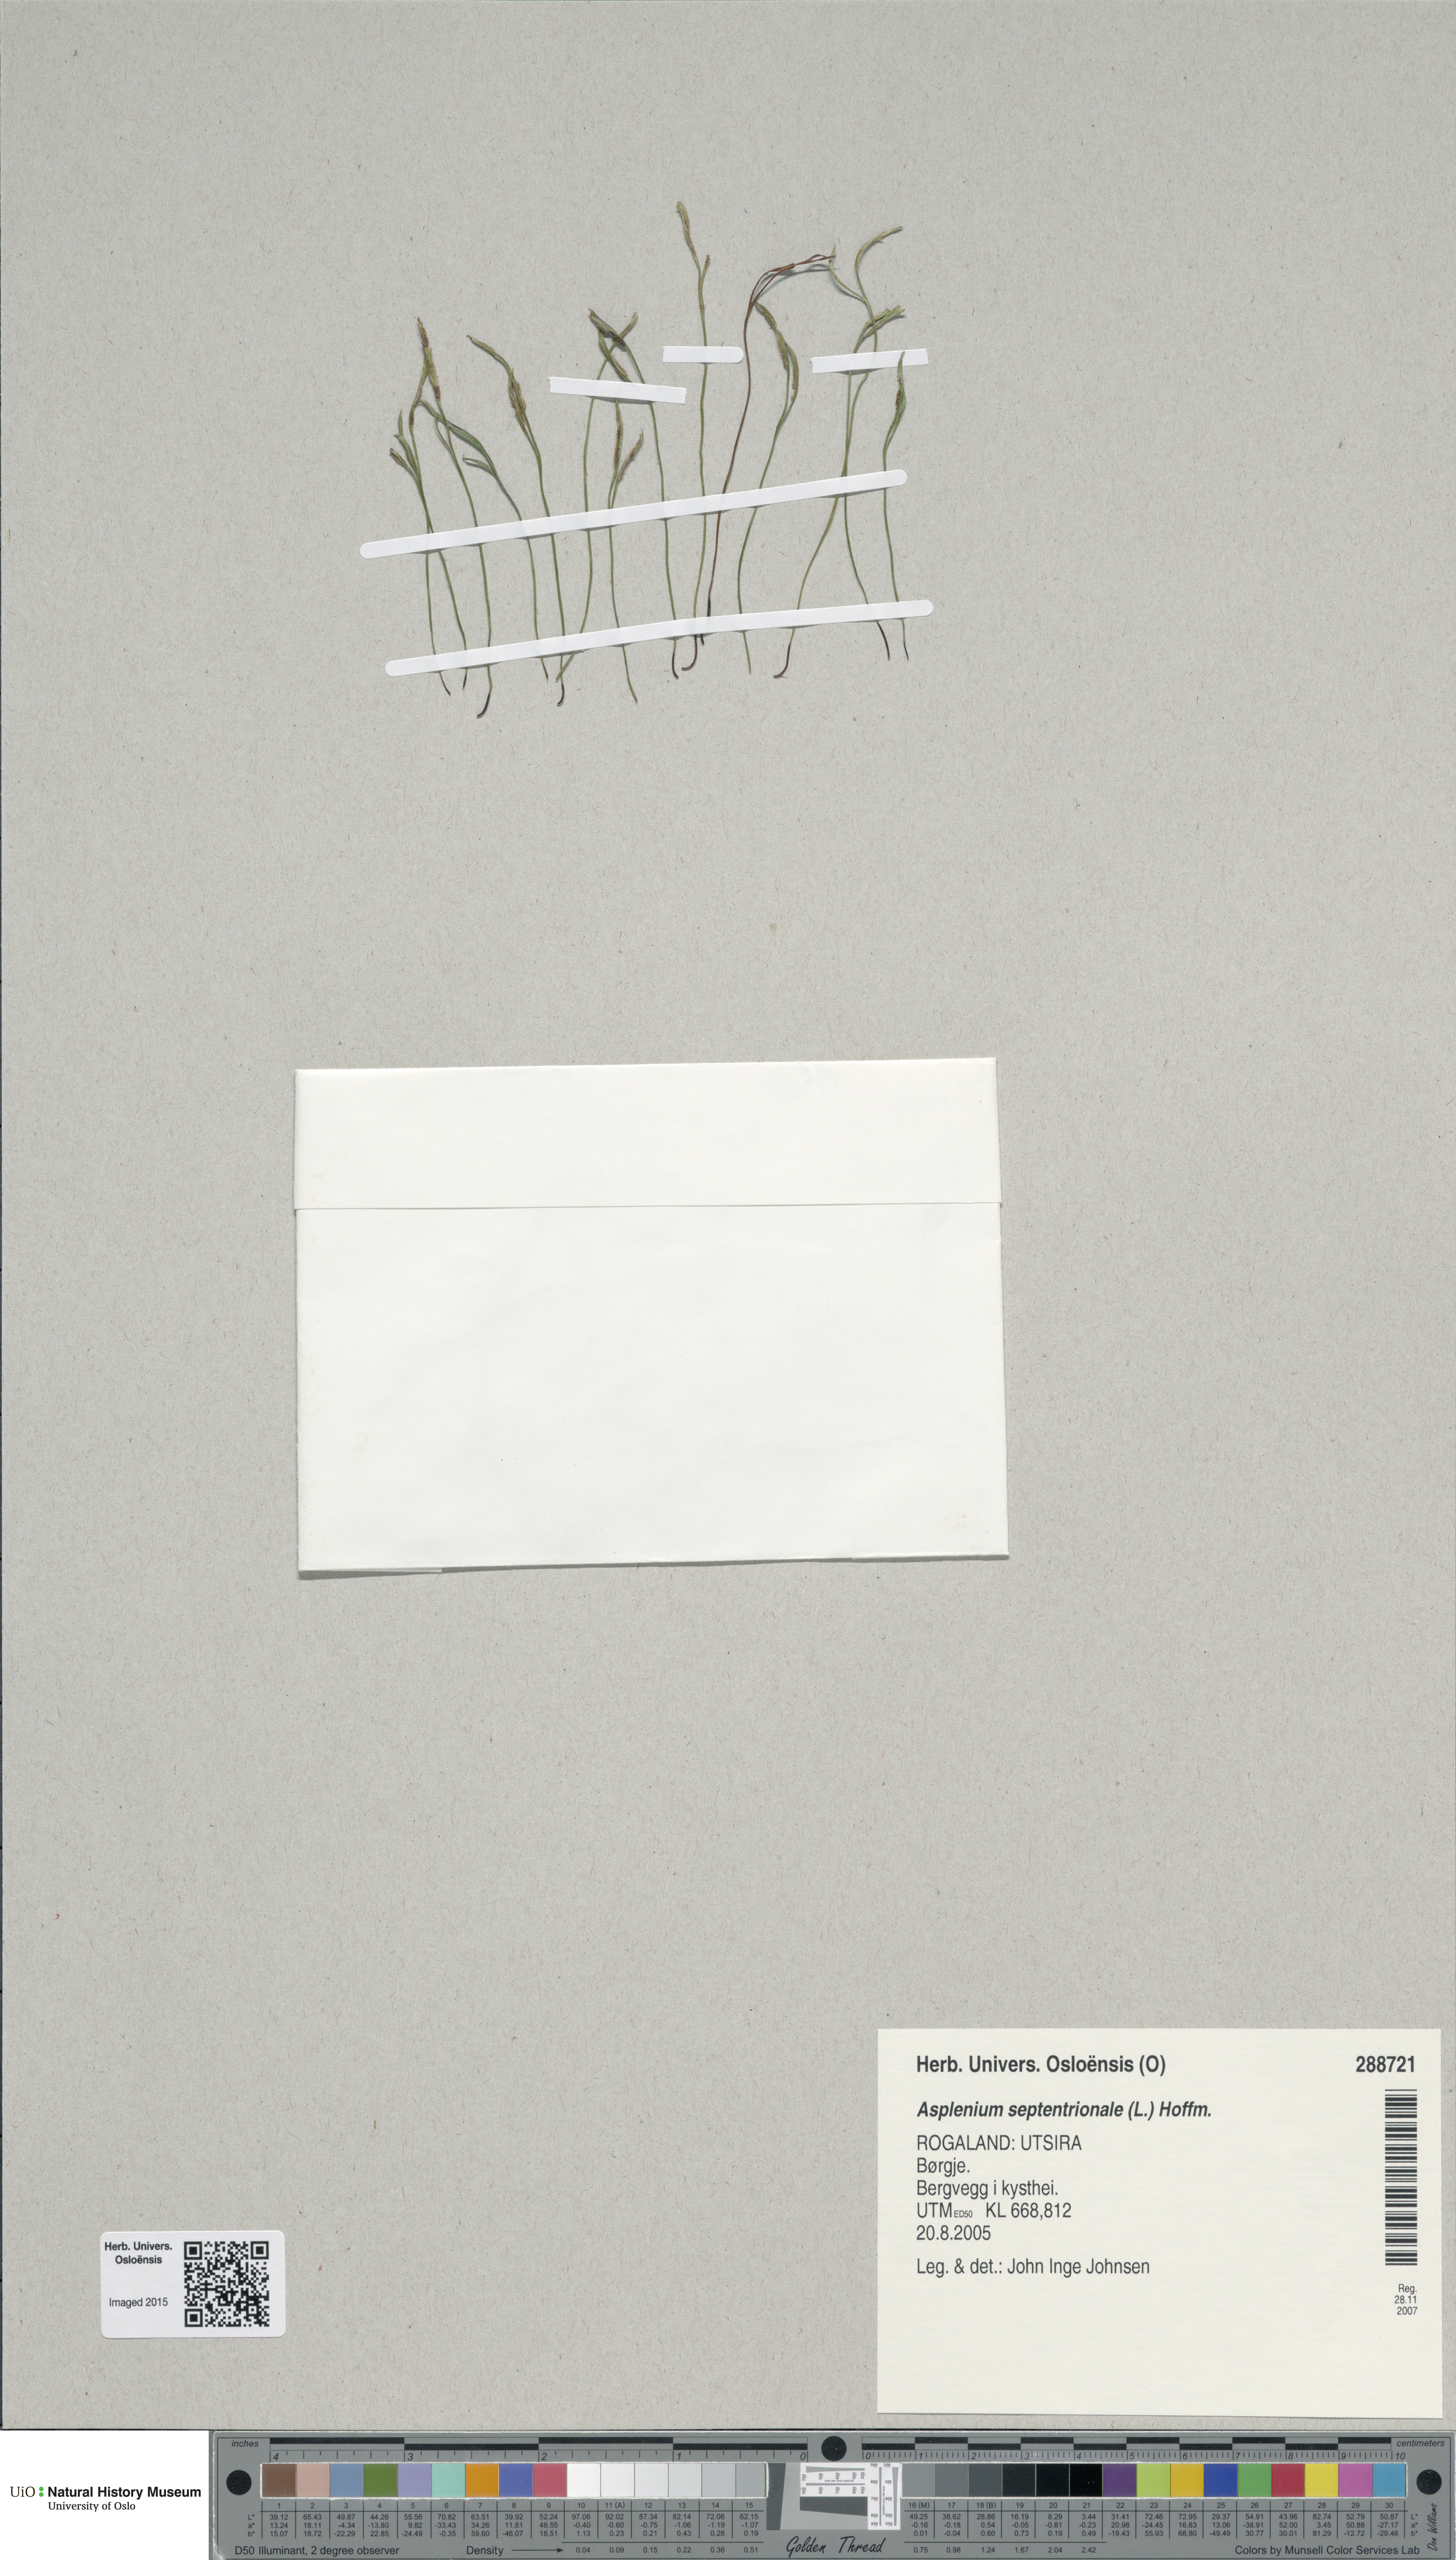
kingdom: Plantae
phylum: Tracheophyta
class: Polypodiopsida
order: Polypodiales
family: Aspleniaceae
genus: Asplenium
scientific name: Asplenium septentrionale
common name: Forked spleenwort
